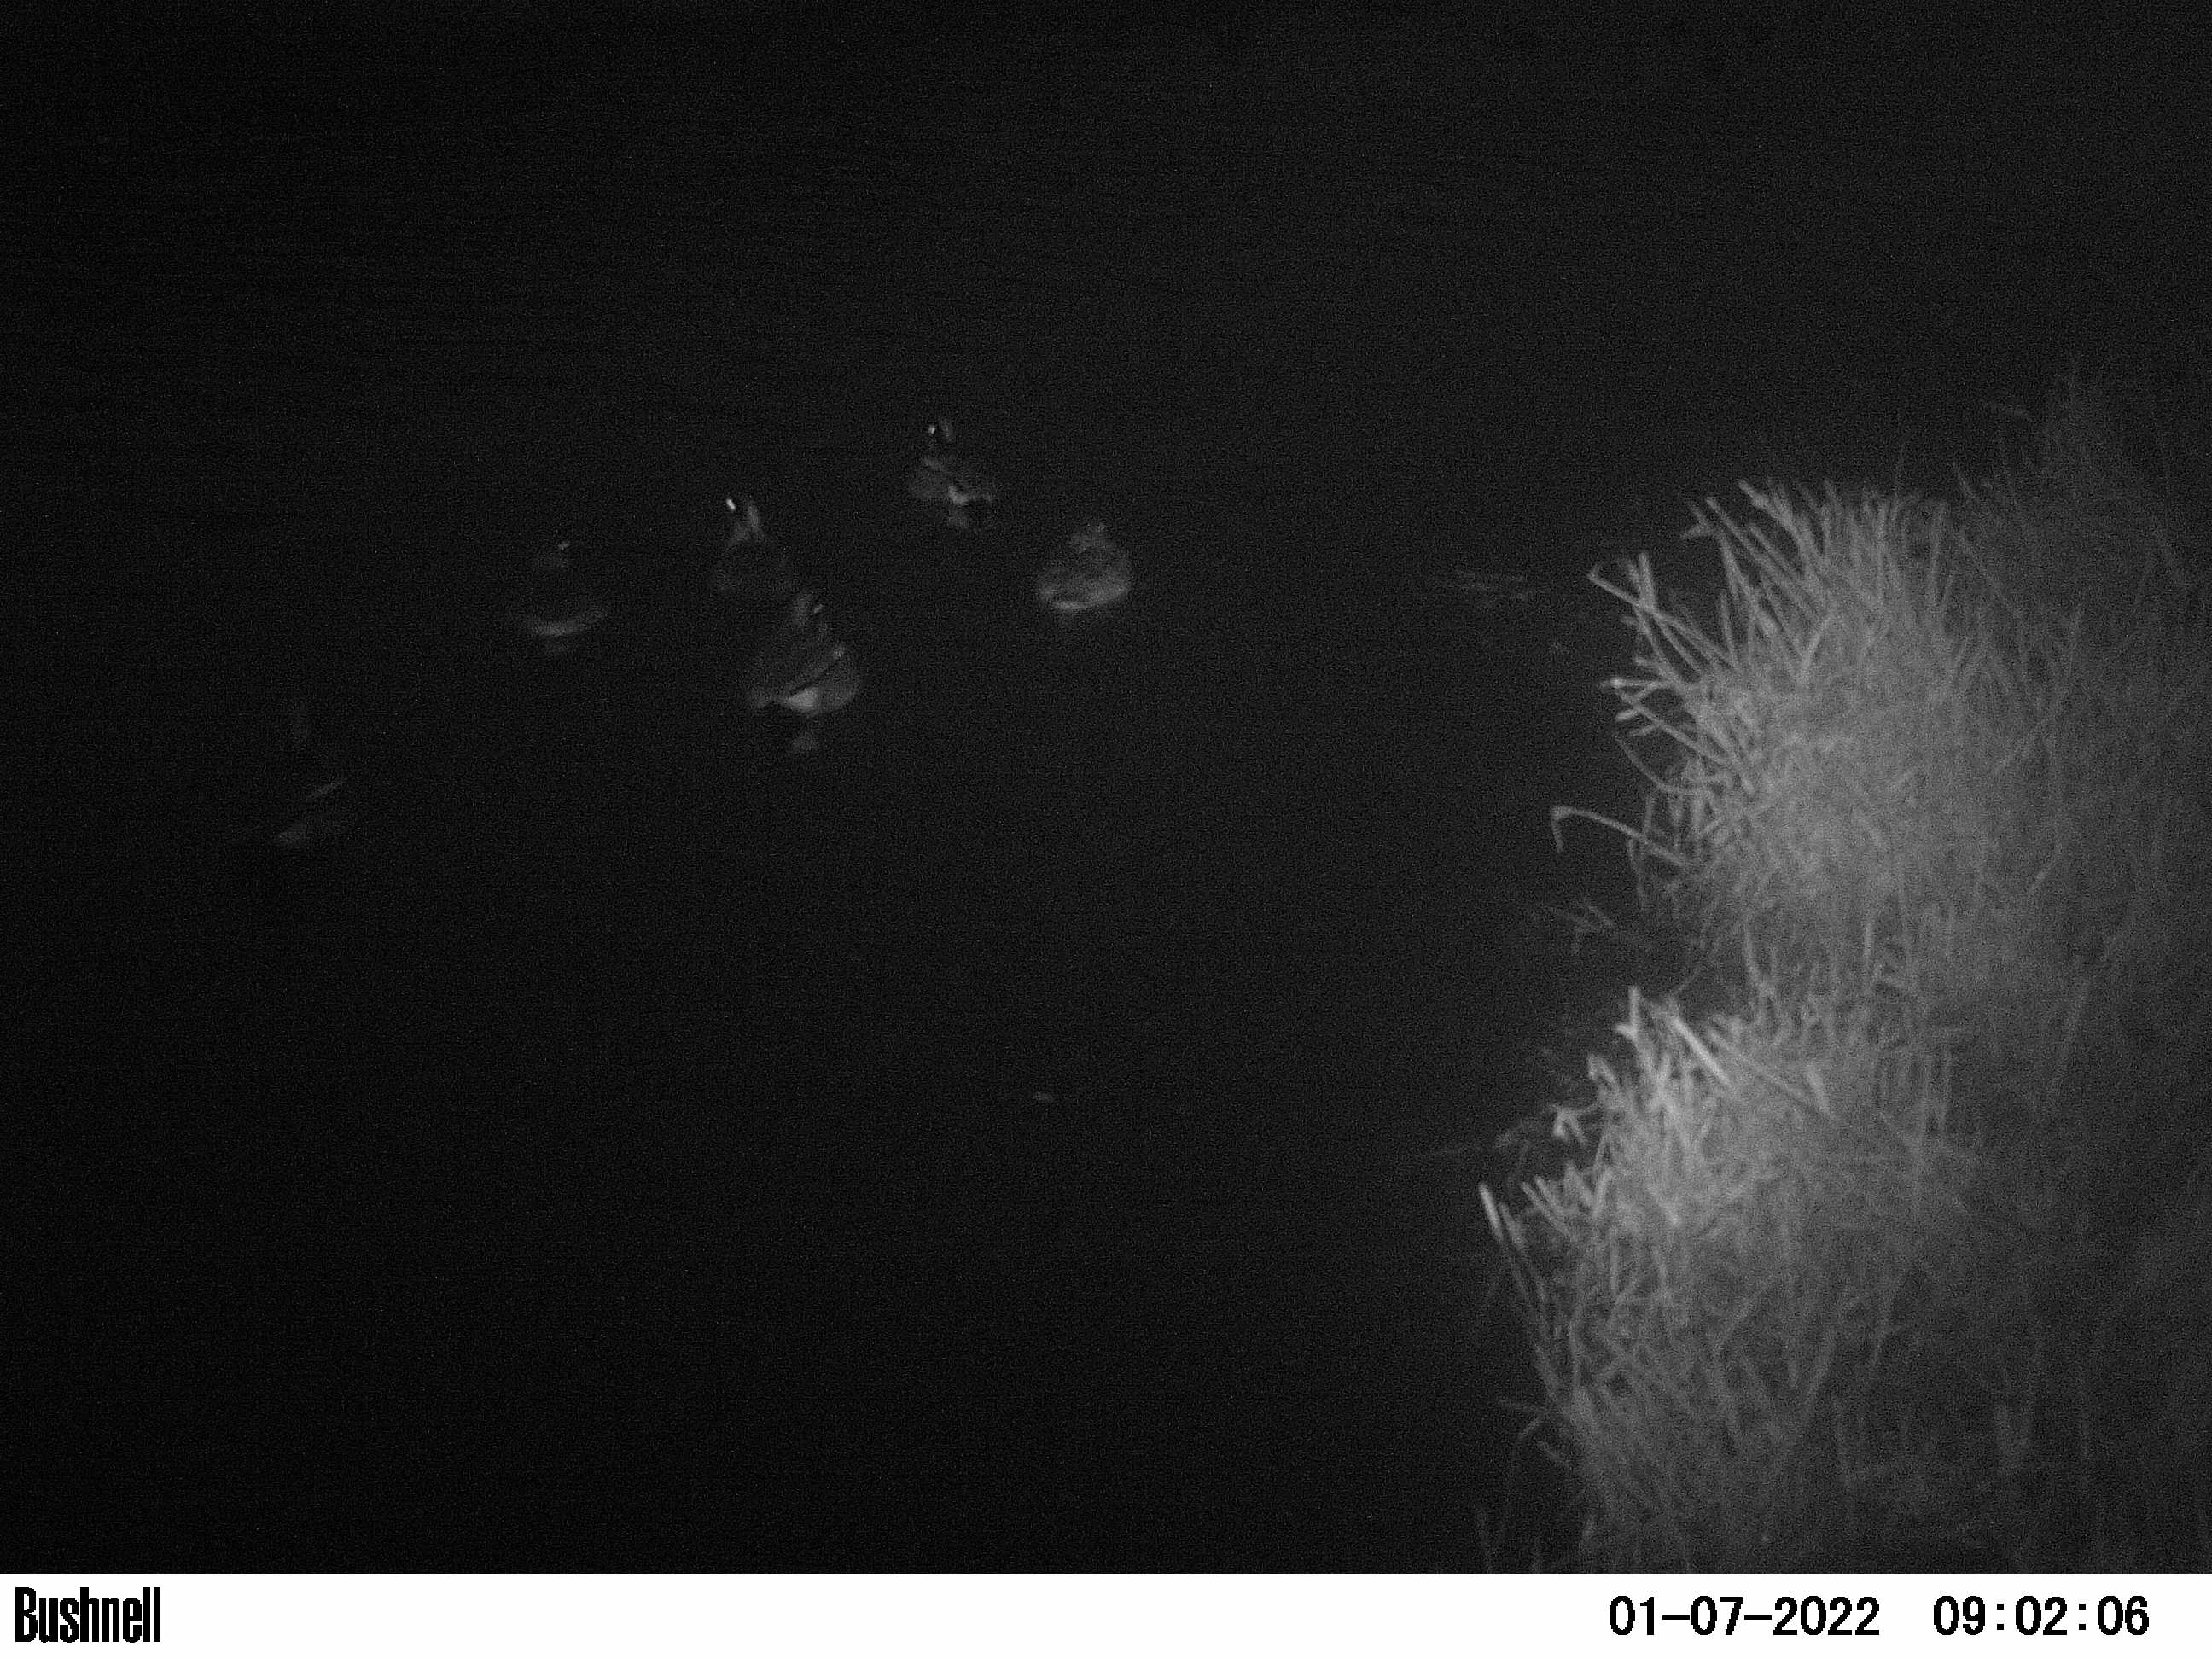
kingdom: Animalia
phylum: Chordata
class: Aves
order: Anseriformes
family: Anatidae
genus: Anas
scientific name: Anas
